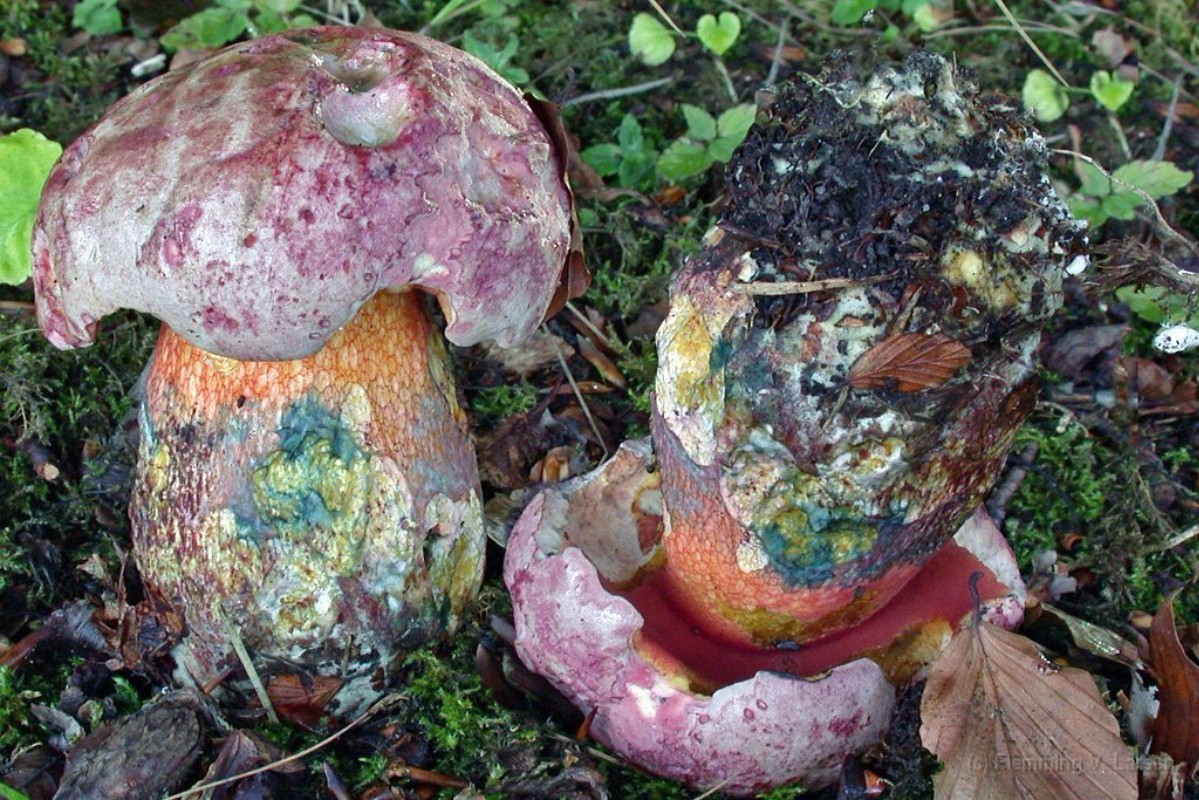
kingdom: Fungi
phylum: Basidiomycota
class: Agaricomycetes
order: Boletales
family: Boletaceae
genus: Rubroboletus
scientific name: Rubroboletus legaliae
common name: djævle-rørhat
